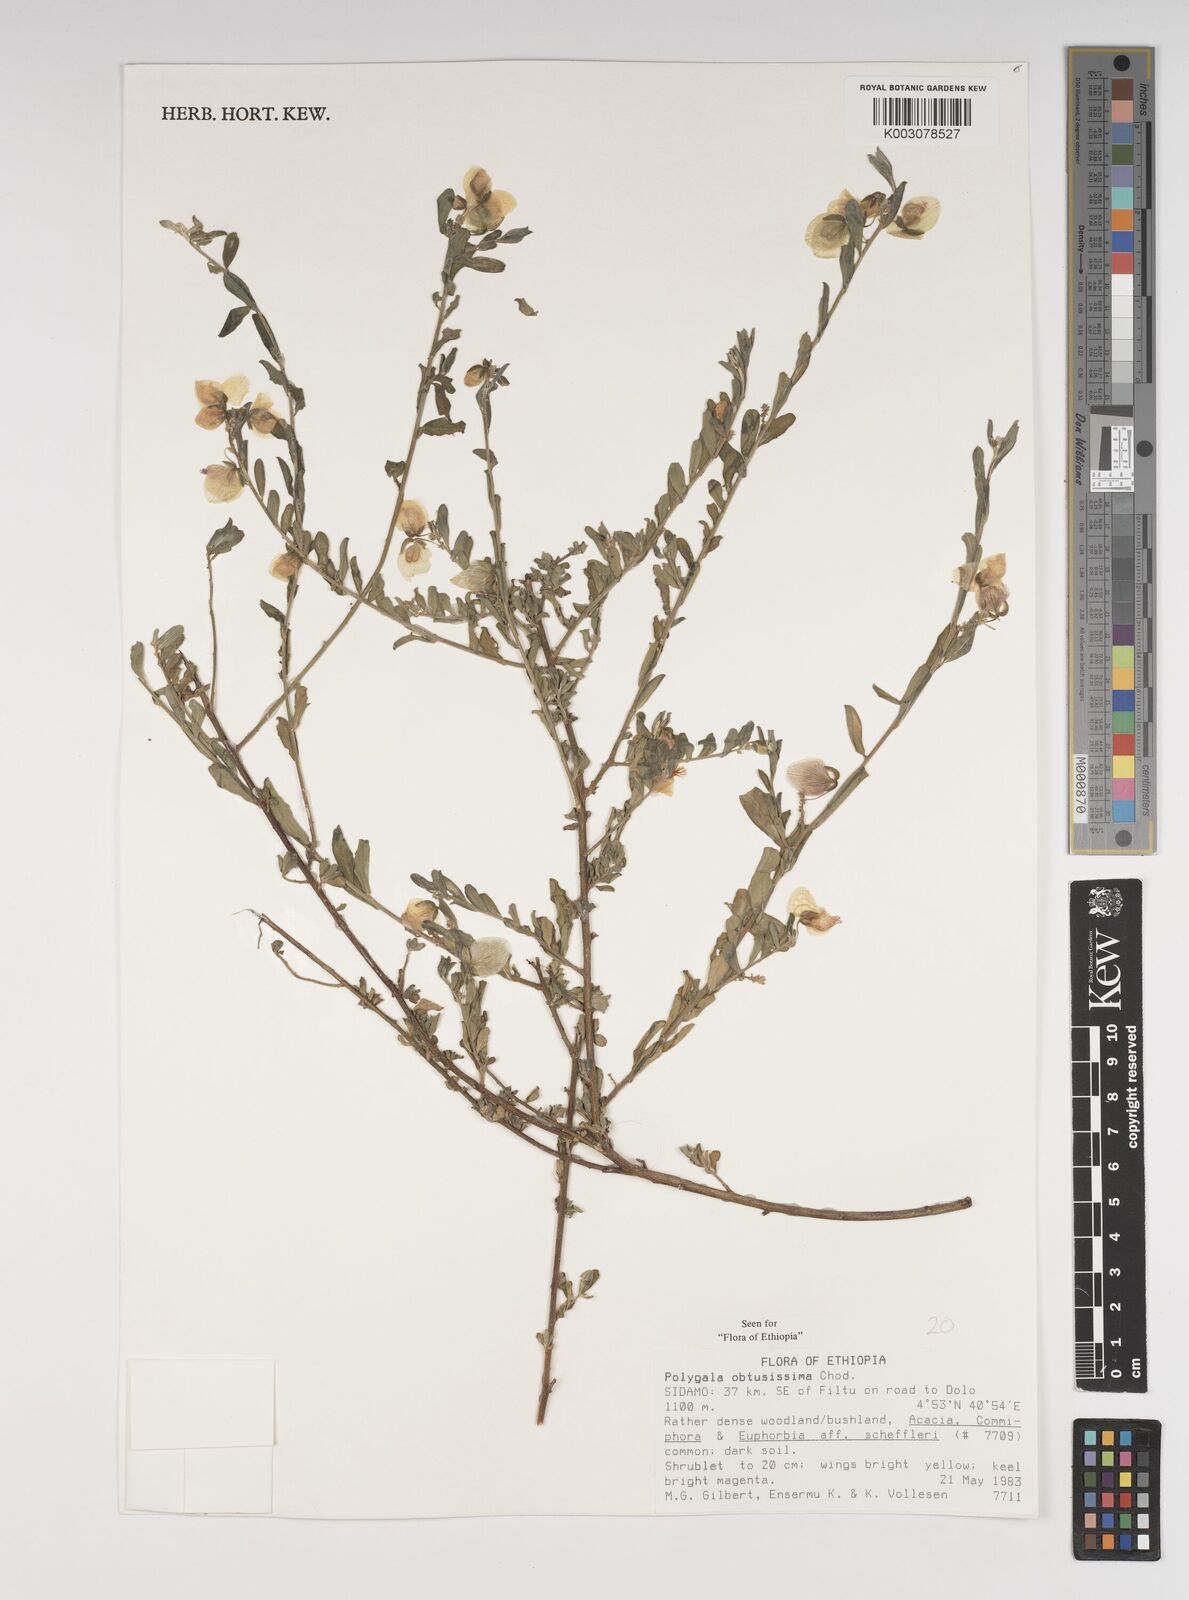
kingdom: Plantae
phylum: Tracheophyta
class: Magnoliopsida
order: Fabales
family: Polygalaceae
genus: Polygala
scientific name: Polygala senensis
